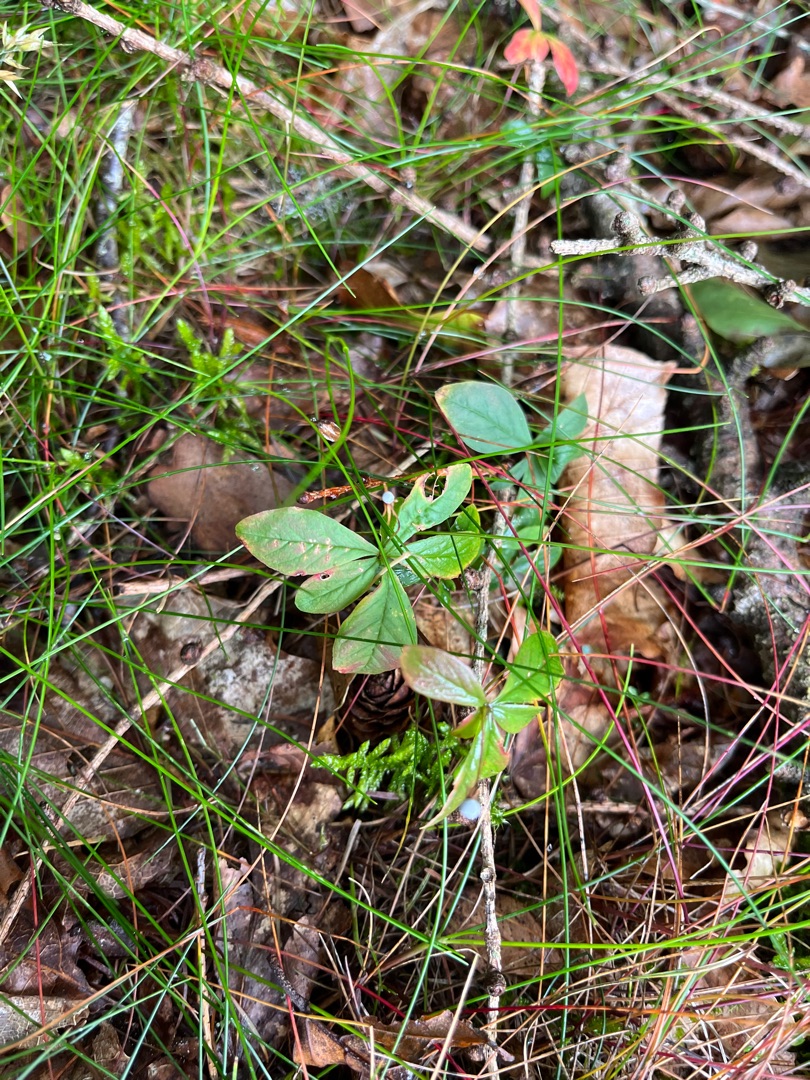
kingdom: Plantae
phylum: Tracheophyta
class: Magnoliopsida
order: Ericales
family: Primulaceae
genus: Lysimachia
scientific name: Lysimachia europaea
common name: Skovstjerne
